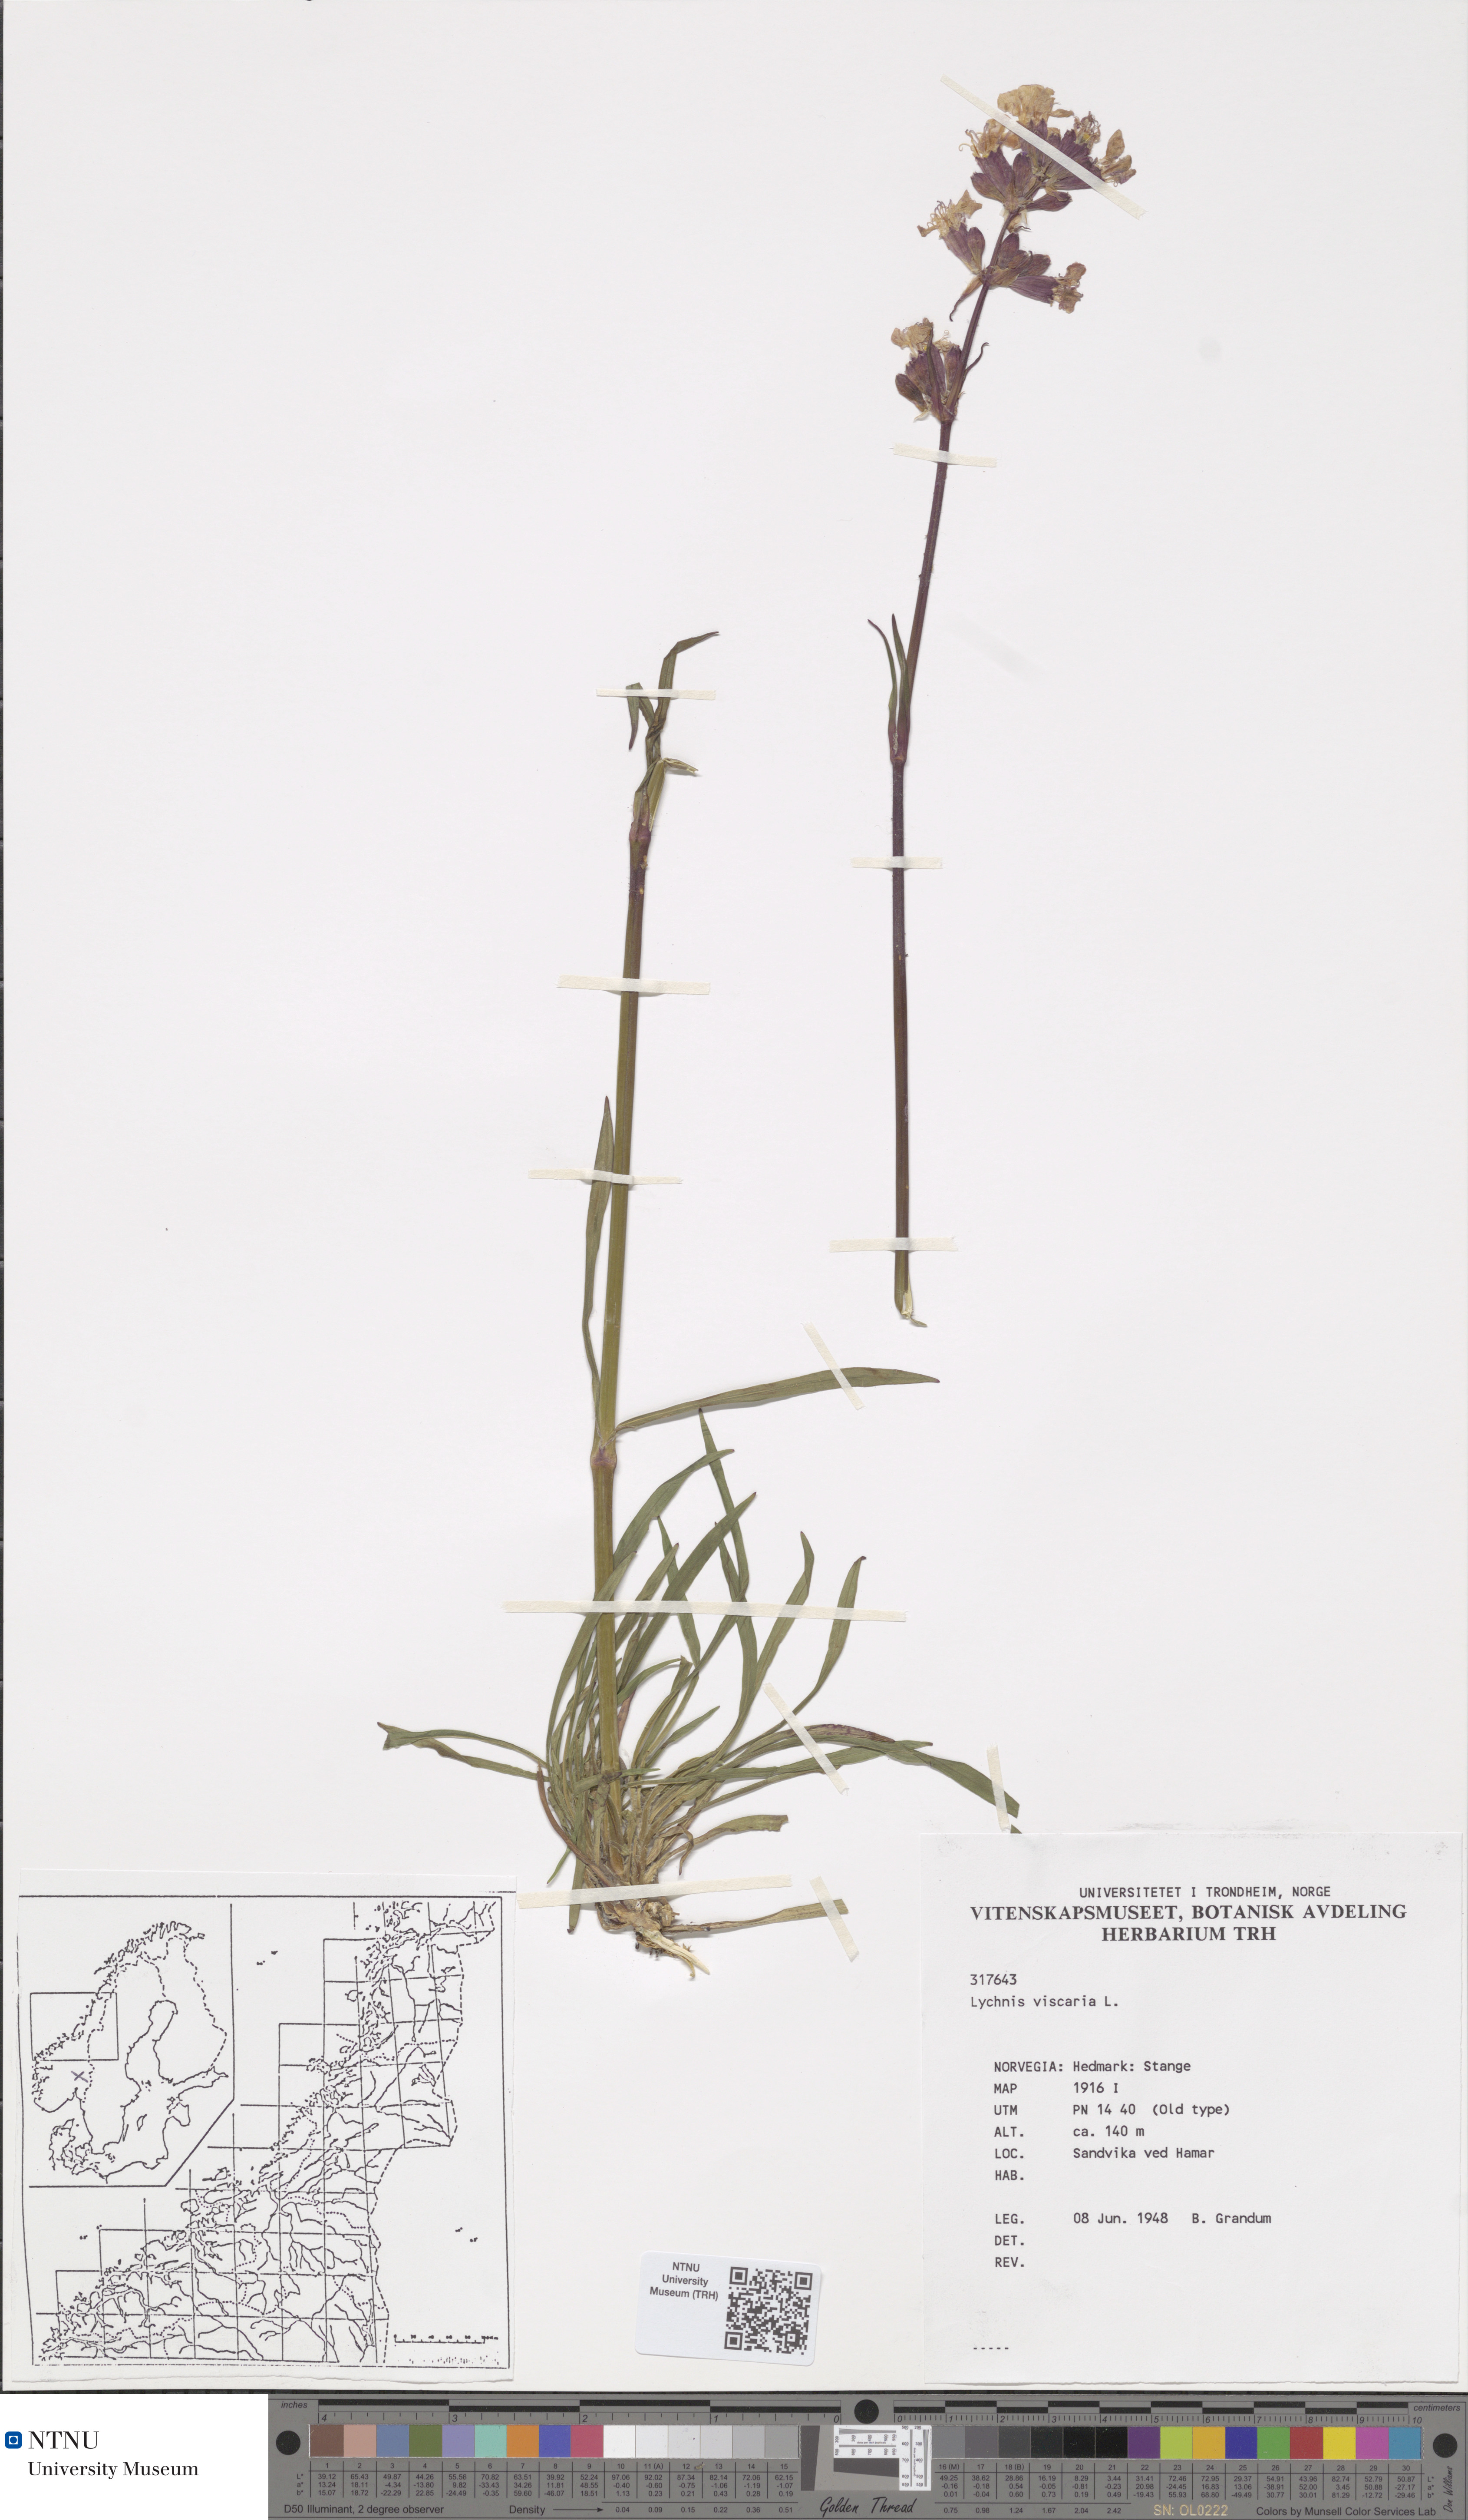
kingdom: Plantae
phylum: Tracheophyta
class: Magnoliopsida
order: Caryophyllales
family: Caryophyllaceae
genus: Viscaria
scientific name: Viscaria vulgaris
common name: Clammy campion
